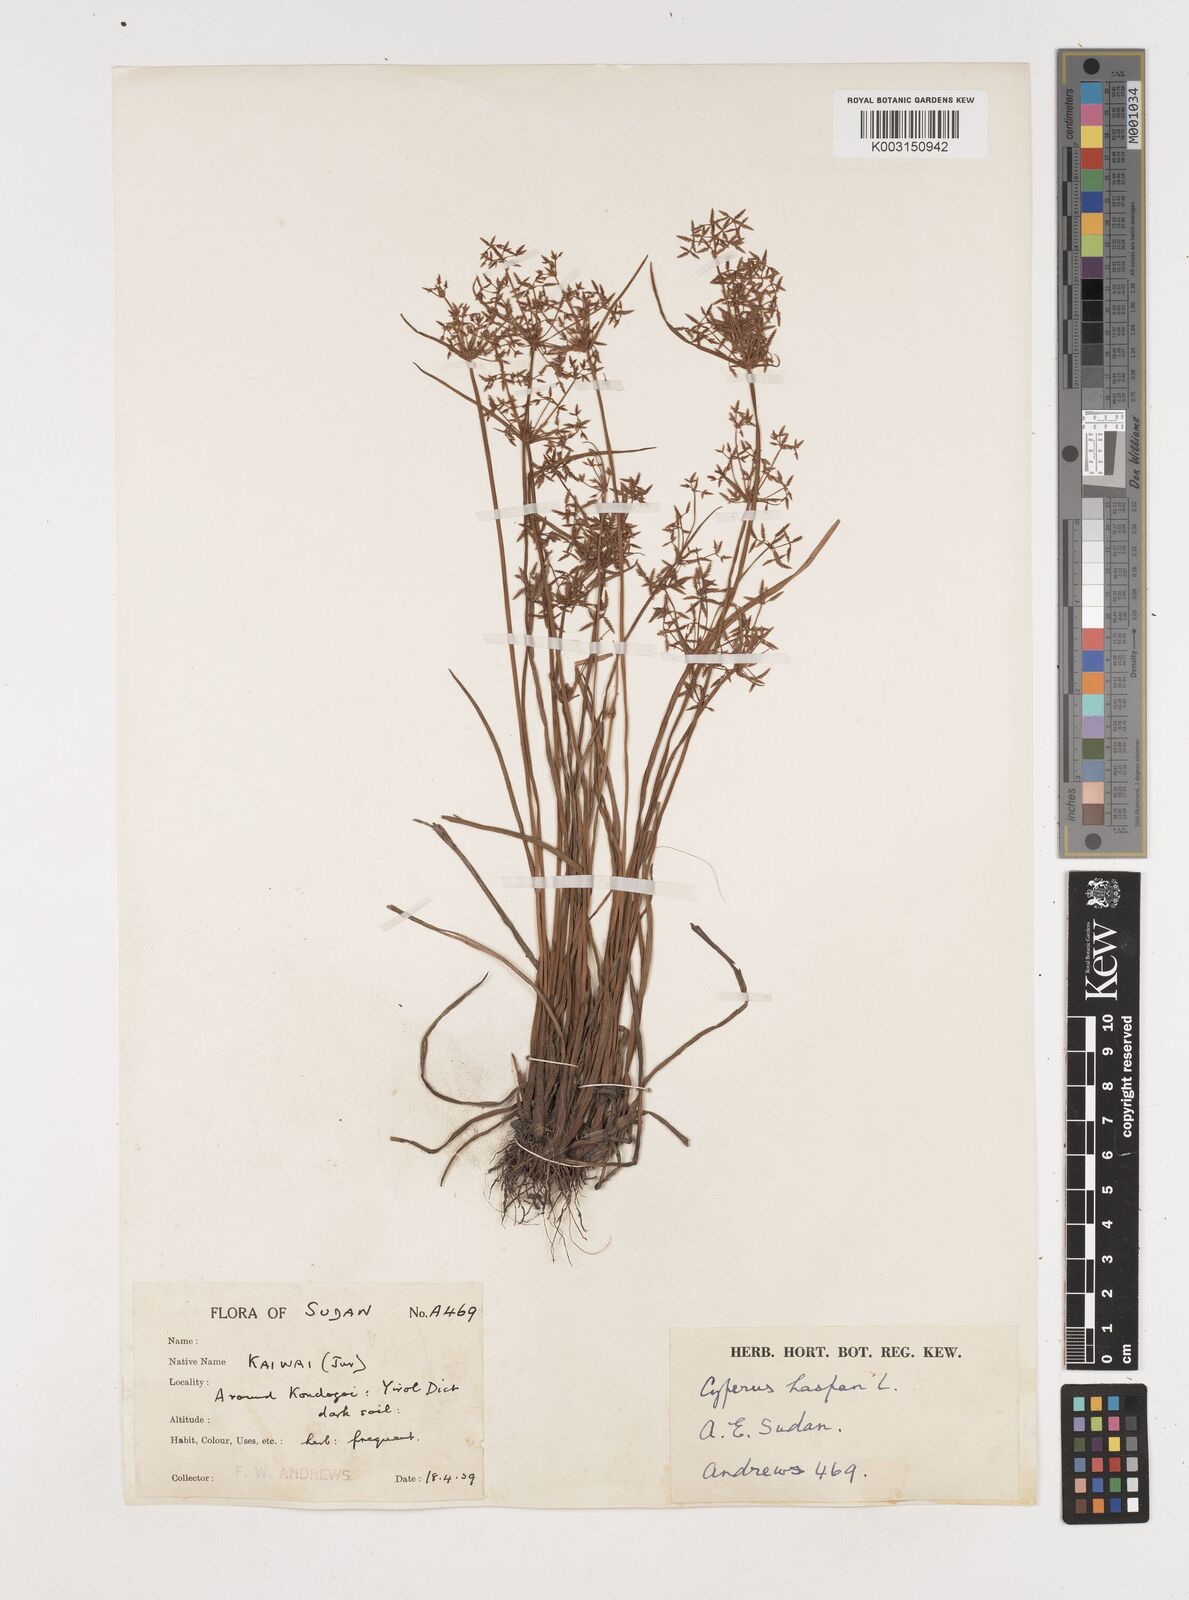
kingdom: Plantae
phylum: Tracheophyta
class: Liliopsida
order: Poales
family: Cyperaceae
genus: Cyperus
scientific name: Cyperus haspan
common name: Haspan flatsedge
